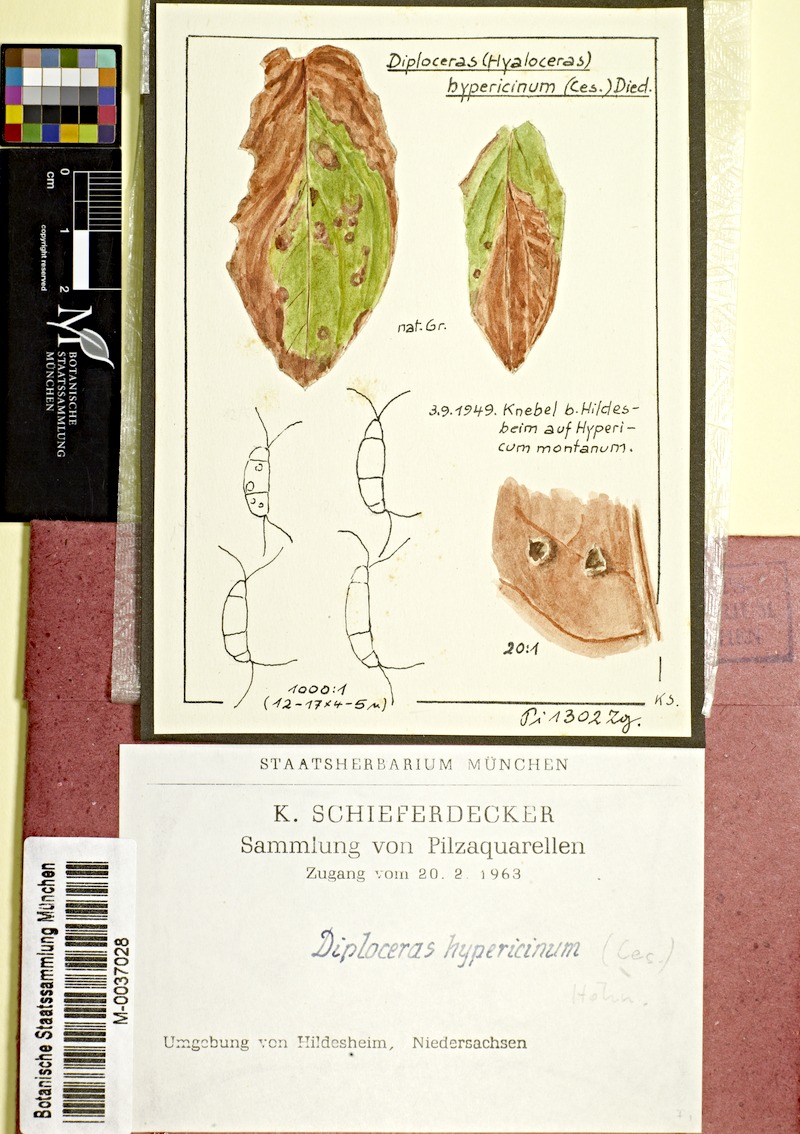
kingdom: Fungi
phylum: Ascomycota
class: Sordariomycetes
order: Amphisphaeriales
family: Sporocadaceae
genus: Seimatosporium
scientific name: Seimatosporium hypericinum
